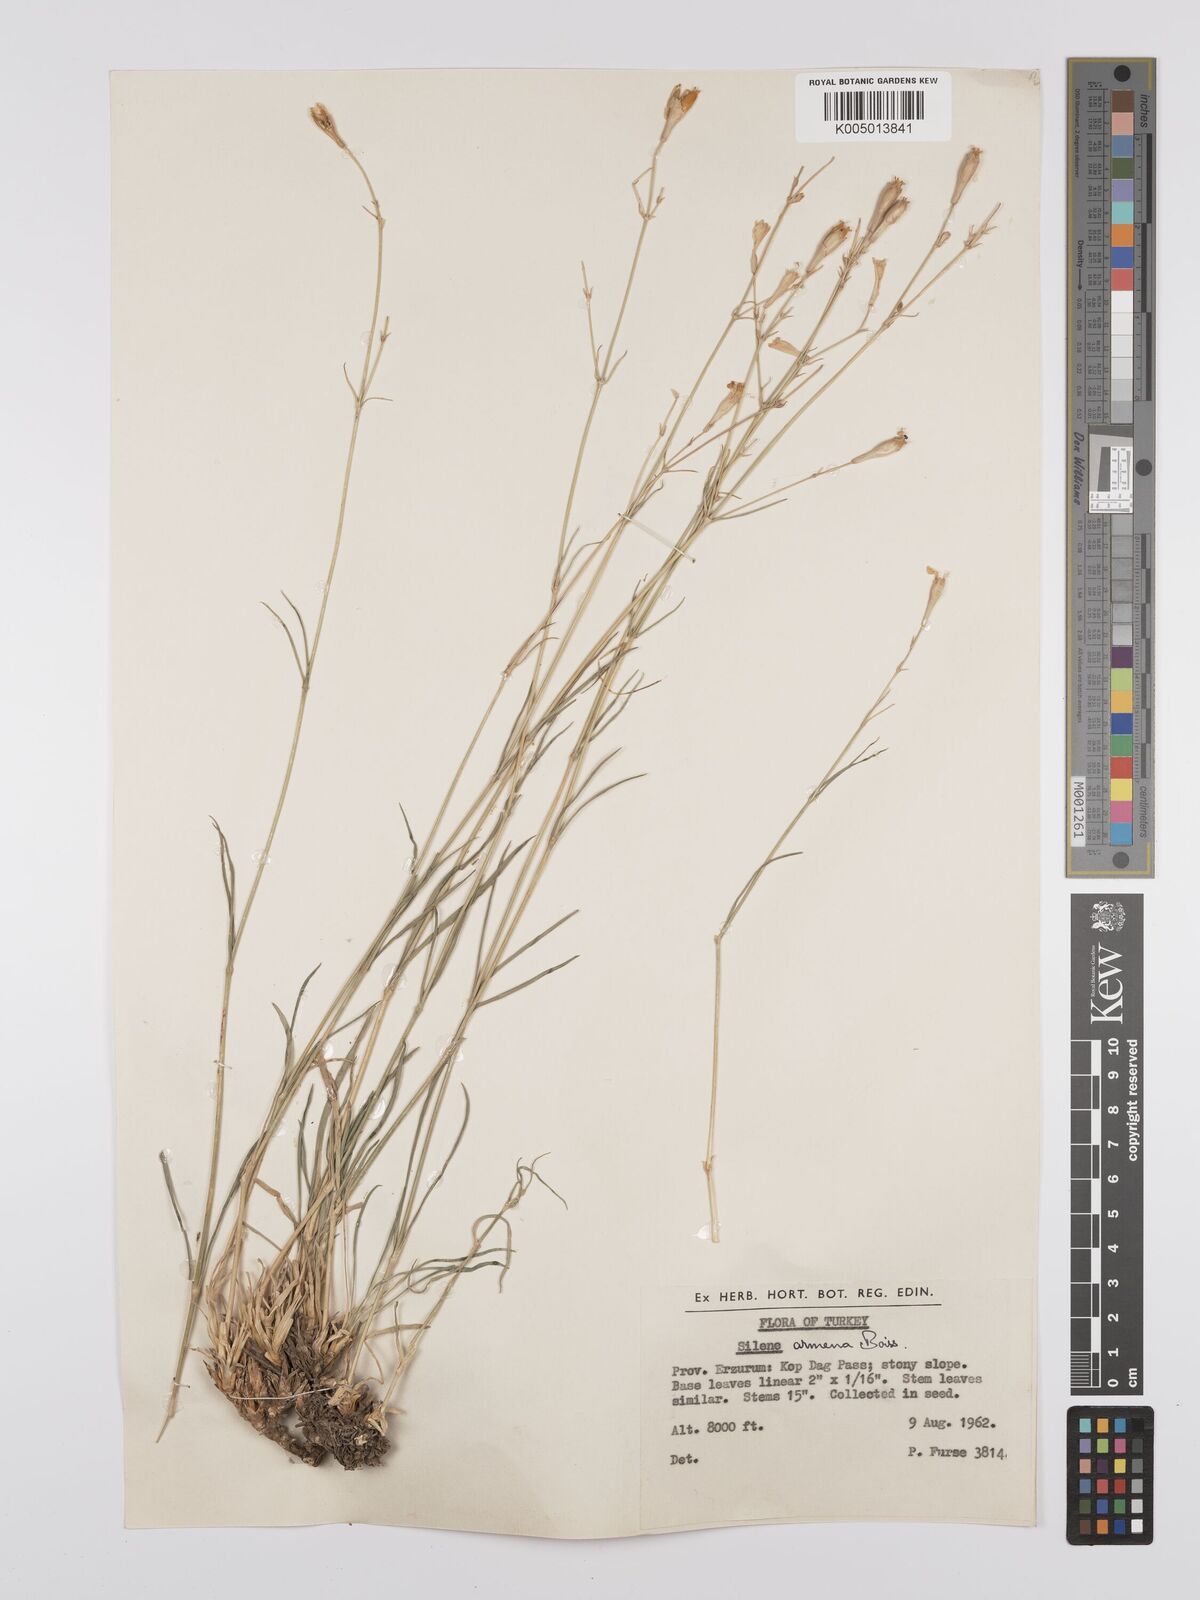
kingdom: Plantae
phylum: Tracheophyta
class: Magnoliopsida
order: Caryophyllales
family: Caryophyllaceae
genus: Silene
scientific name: Silene
